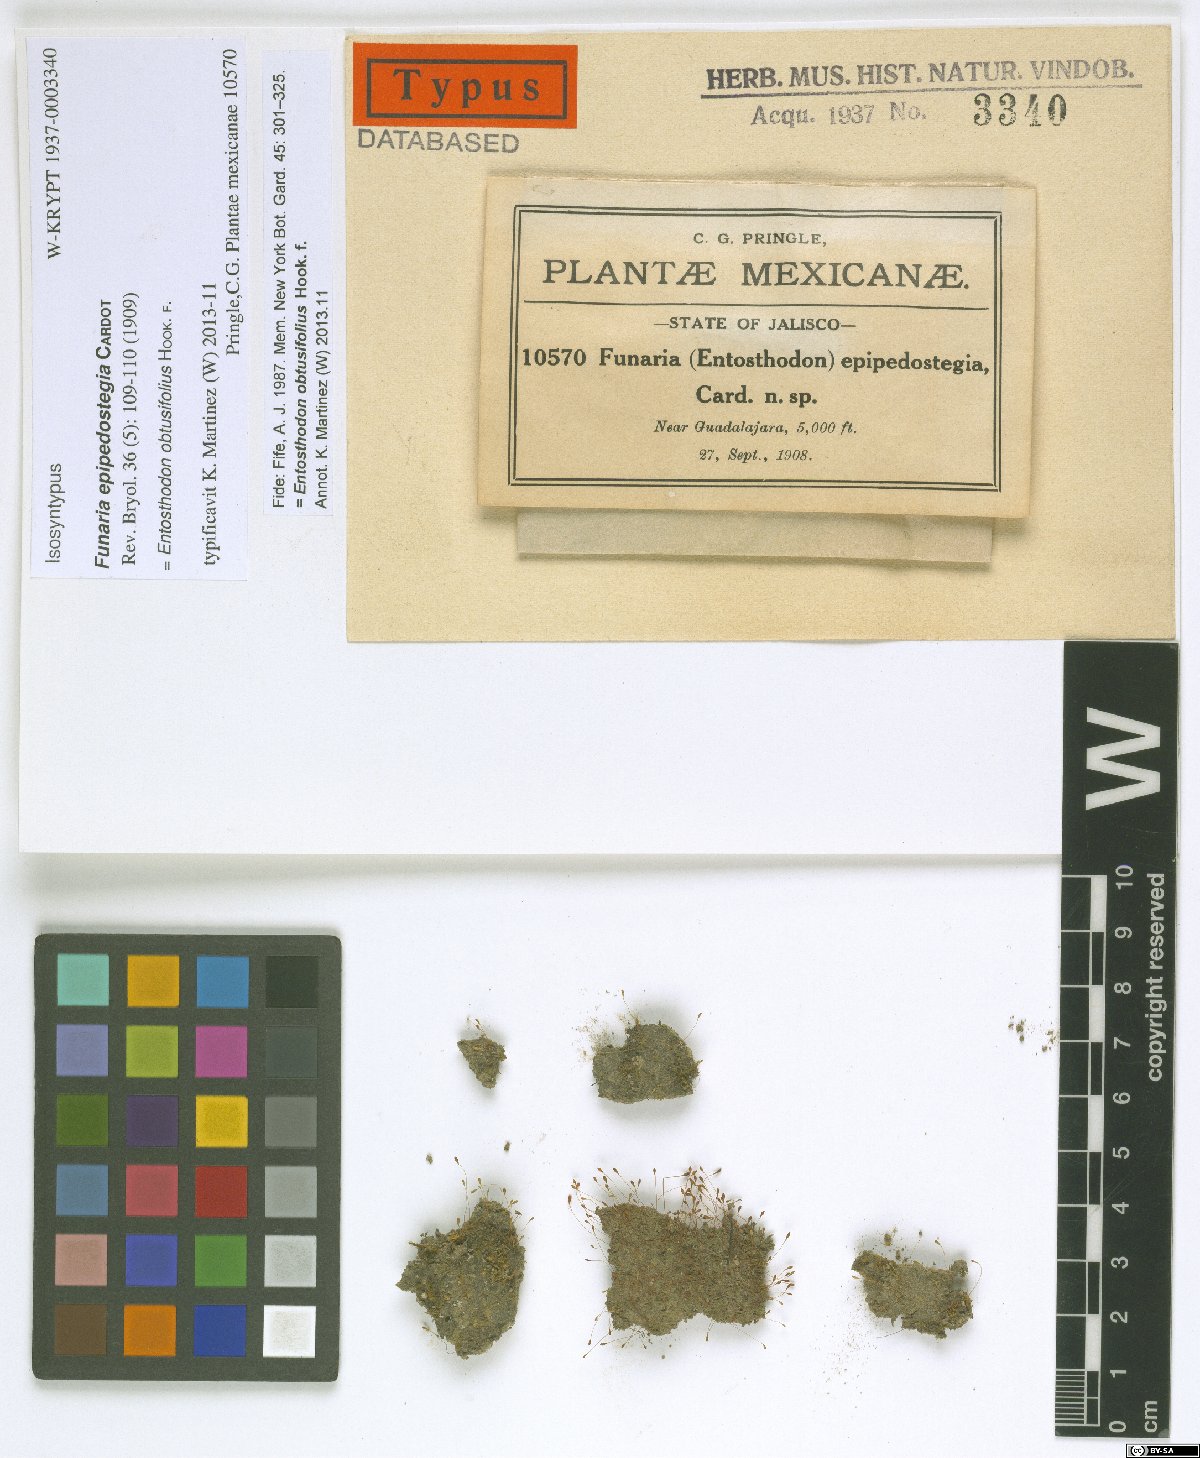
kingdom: Plantae
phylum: Bryophyta
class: Bryopsida
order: Funariales
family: Funariaceae
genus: Entosthodon
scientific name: Entosthodon obtusifolius
